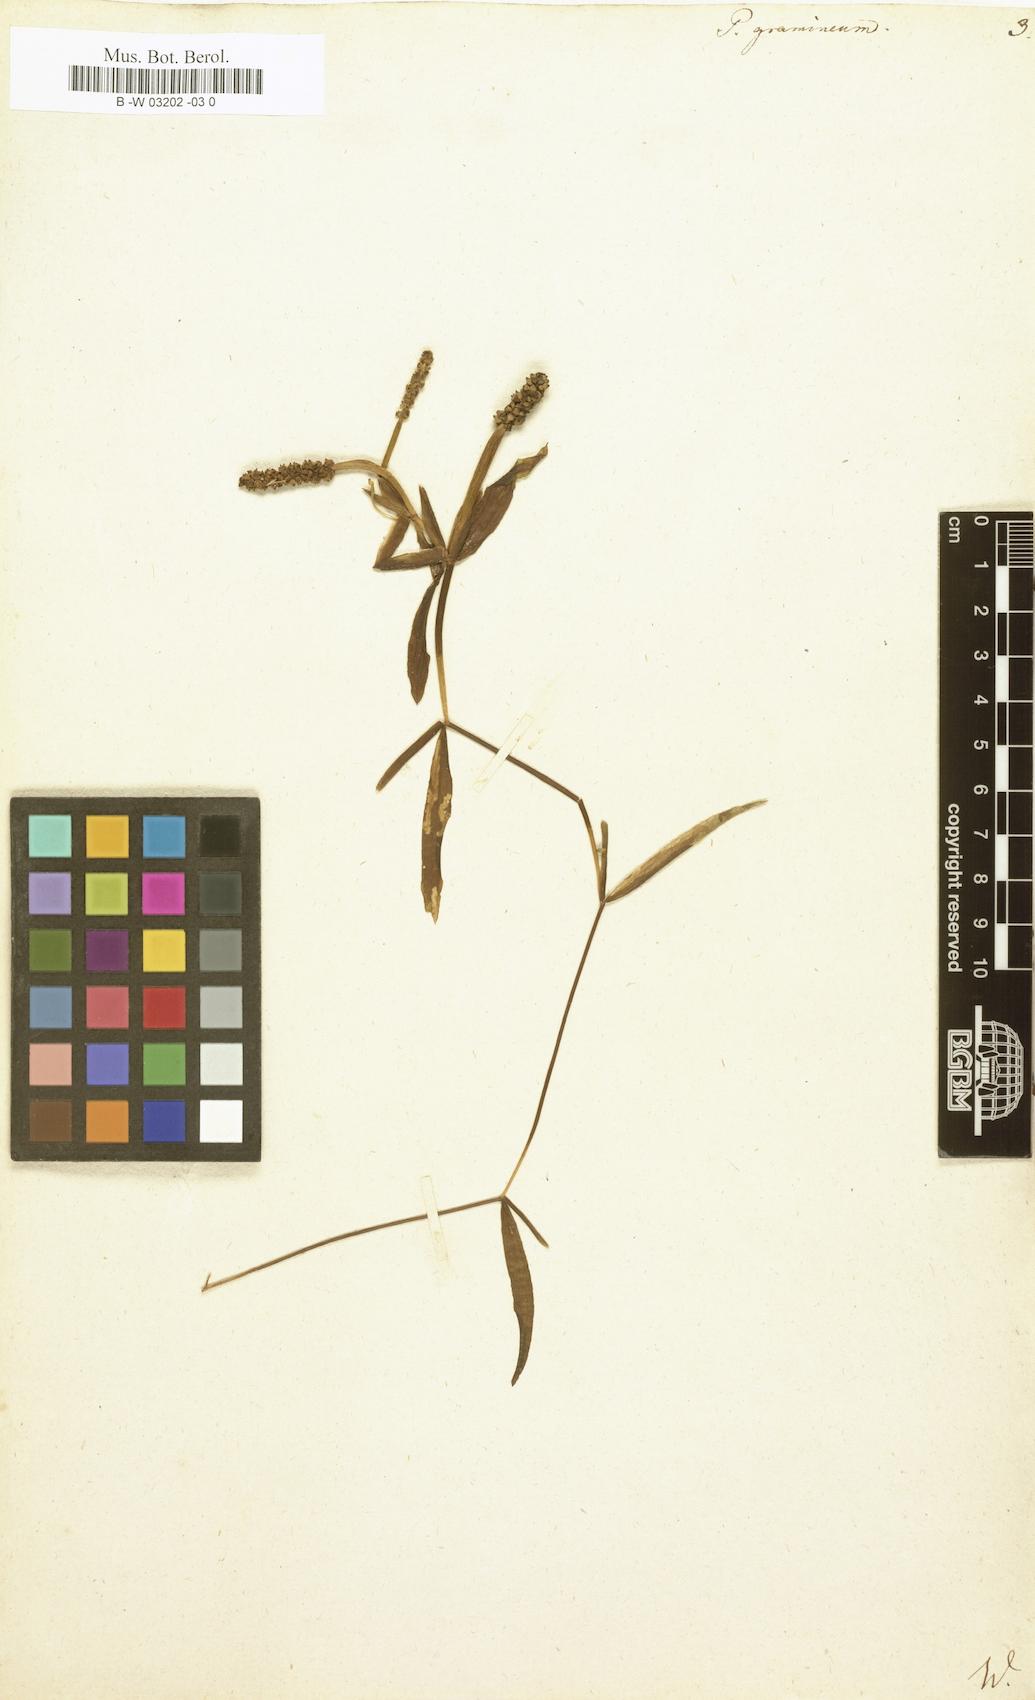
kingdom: Plantae
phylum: Tracheophyta
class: Liliopsida
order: Alismatales
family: Potamogetonaceae
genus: Potamogeton
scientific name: Potamogeton gramineus
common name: Various-leaved pondweed
